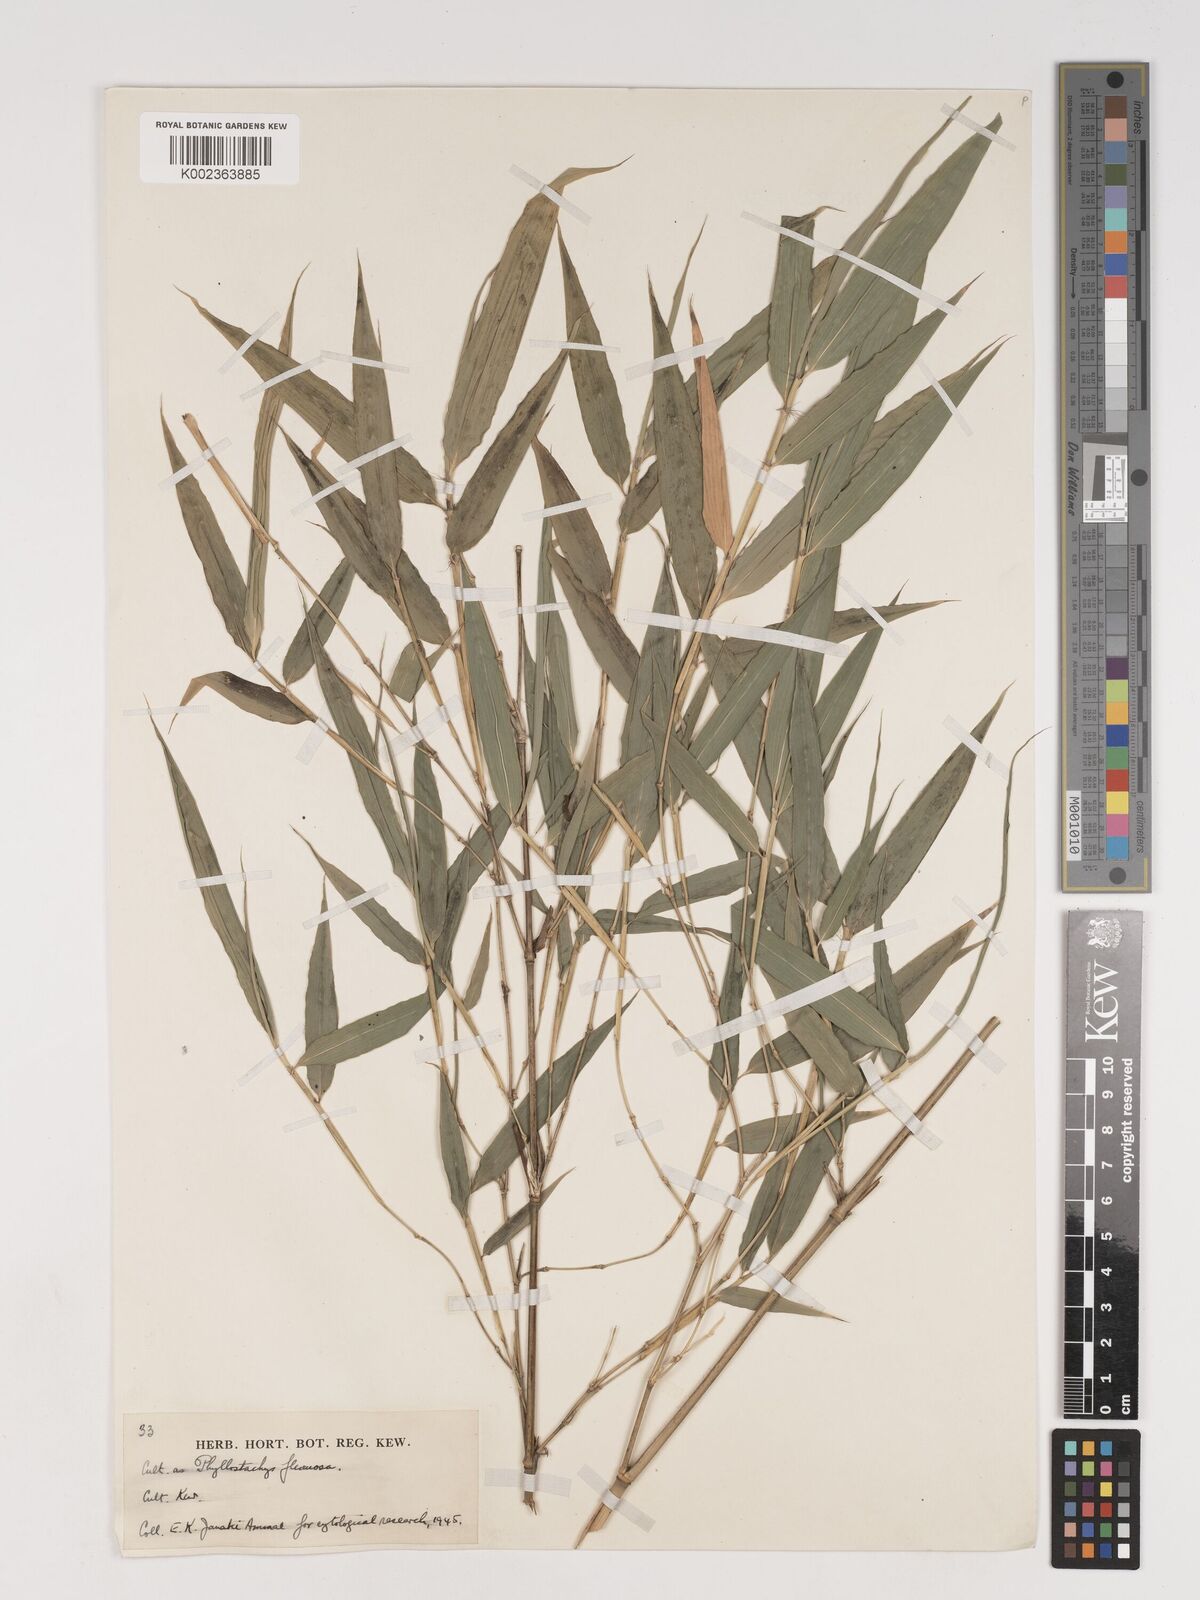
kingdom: Plantae
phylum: Tracheophyta
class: Liliopsida
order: Poales
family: Poaceae
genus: Phyllostachys
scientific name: Phyllostachys flexuosa
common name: Drooping timber bamboo
